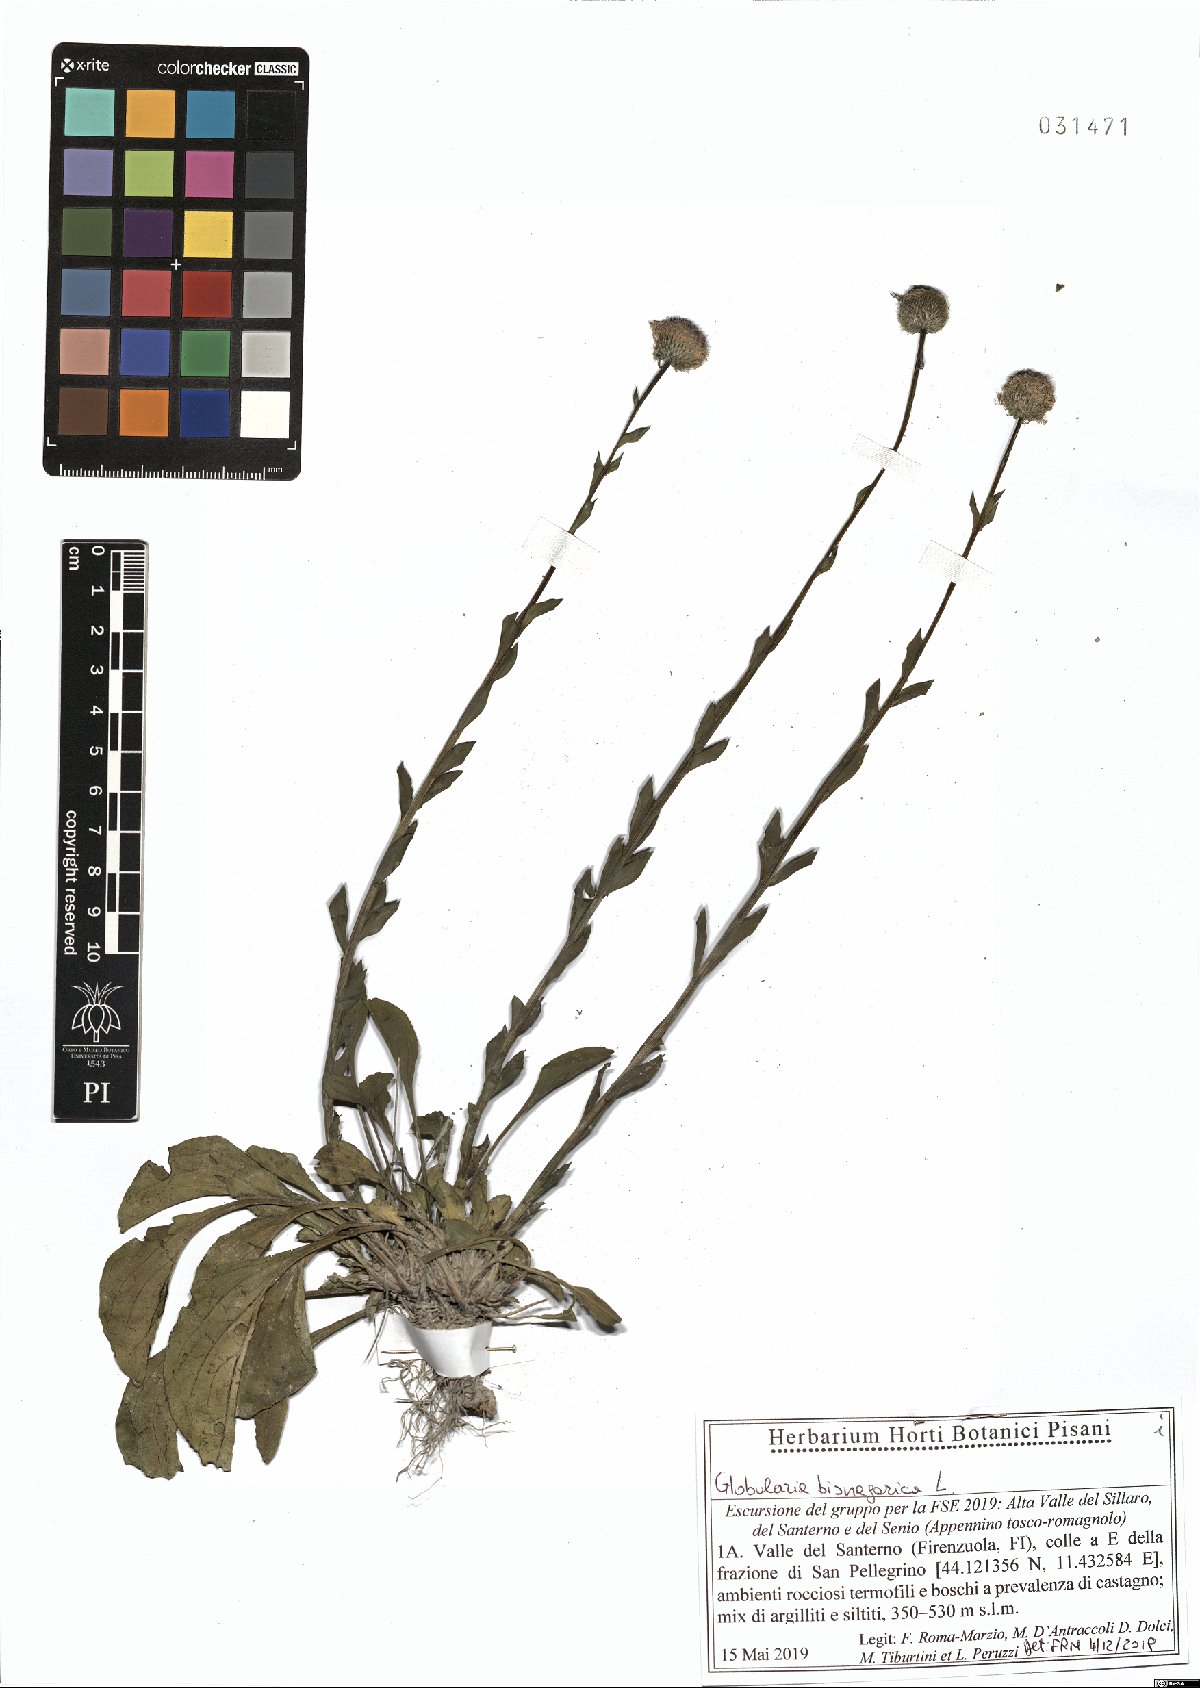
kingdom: Plantae
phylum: Tracheophyta
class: Magnoliopsida
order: Lamiales
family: Plantaginaceae
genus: Globularia
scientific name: Globularia bisnagarica
